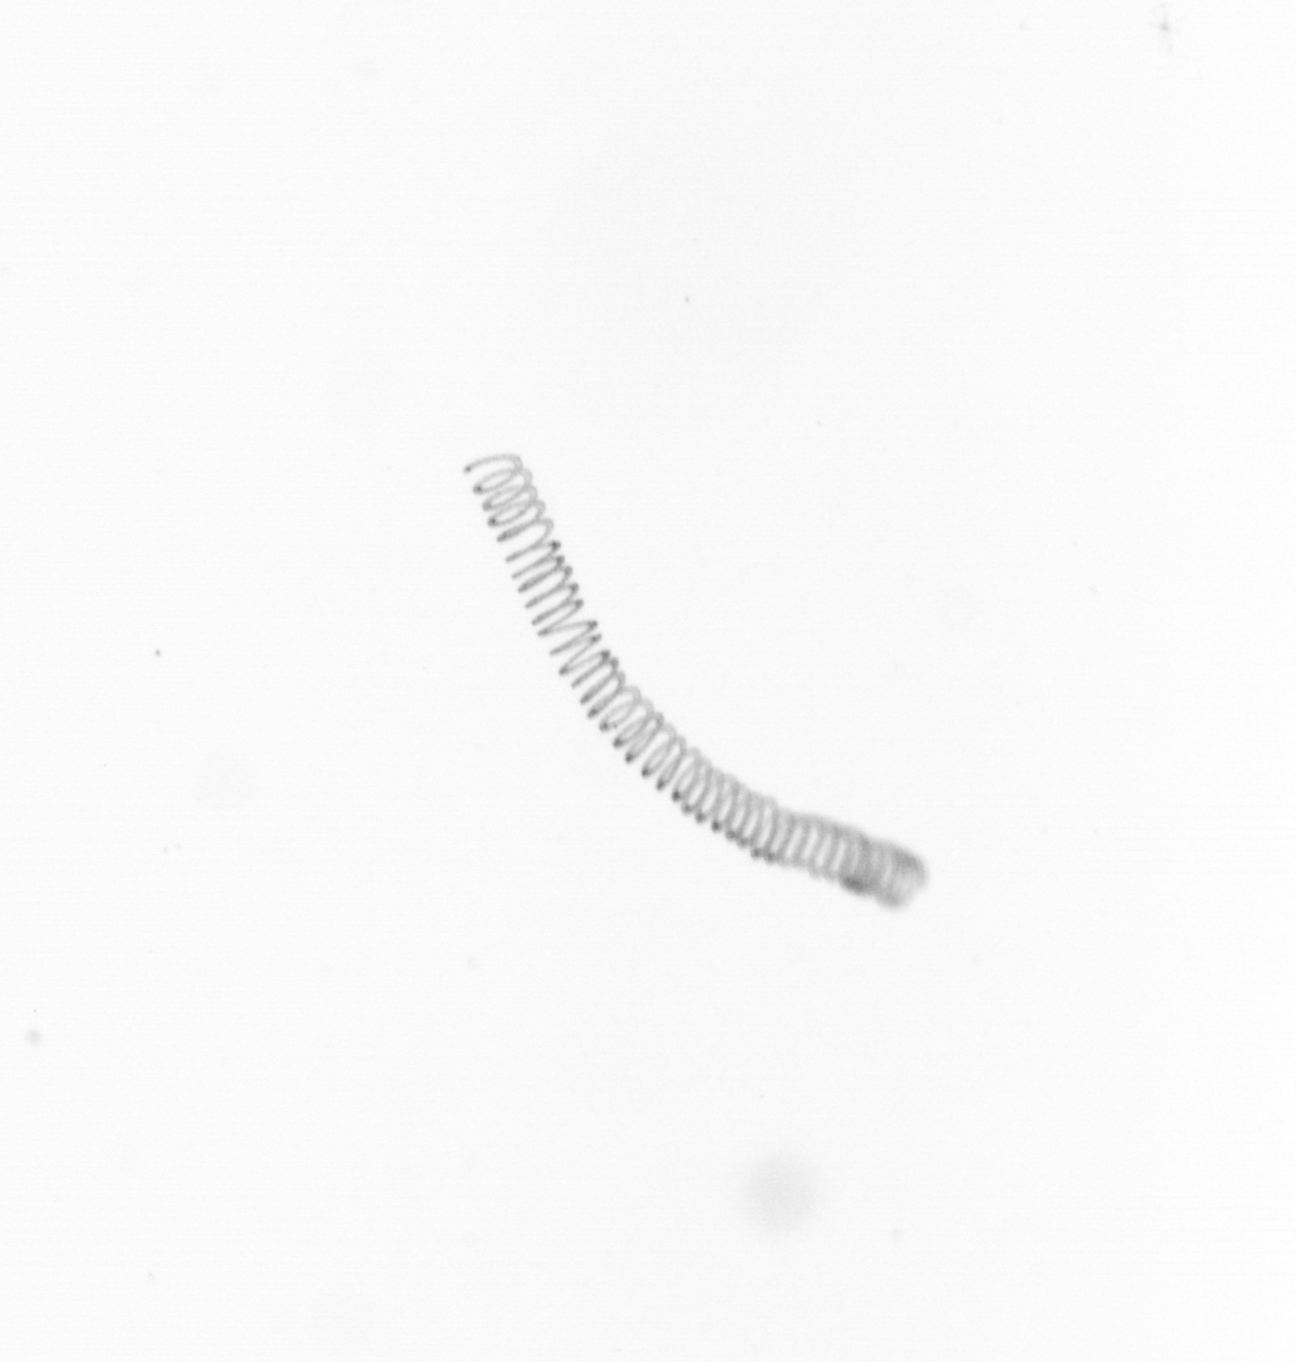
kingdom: Chromista
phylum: Ochrophyta
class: Bacillariophyceae
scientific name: Bacillariophyceae
